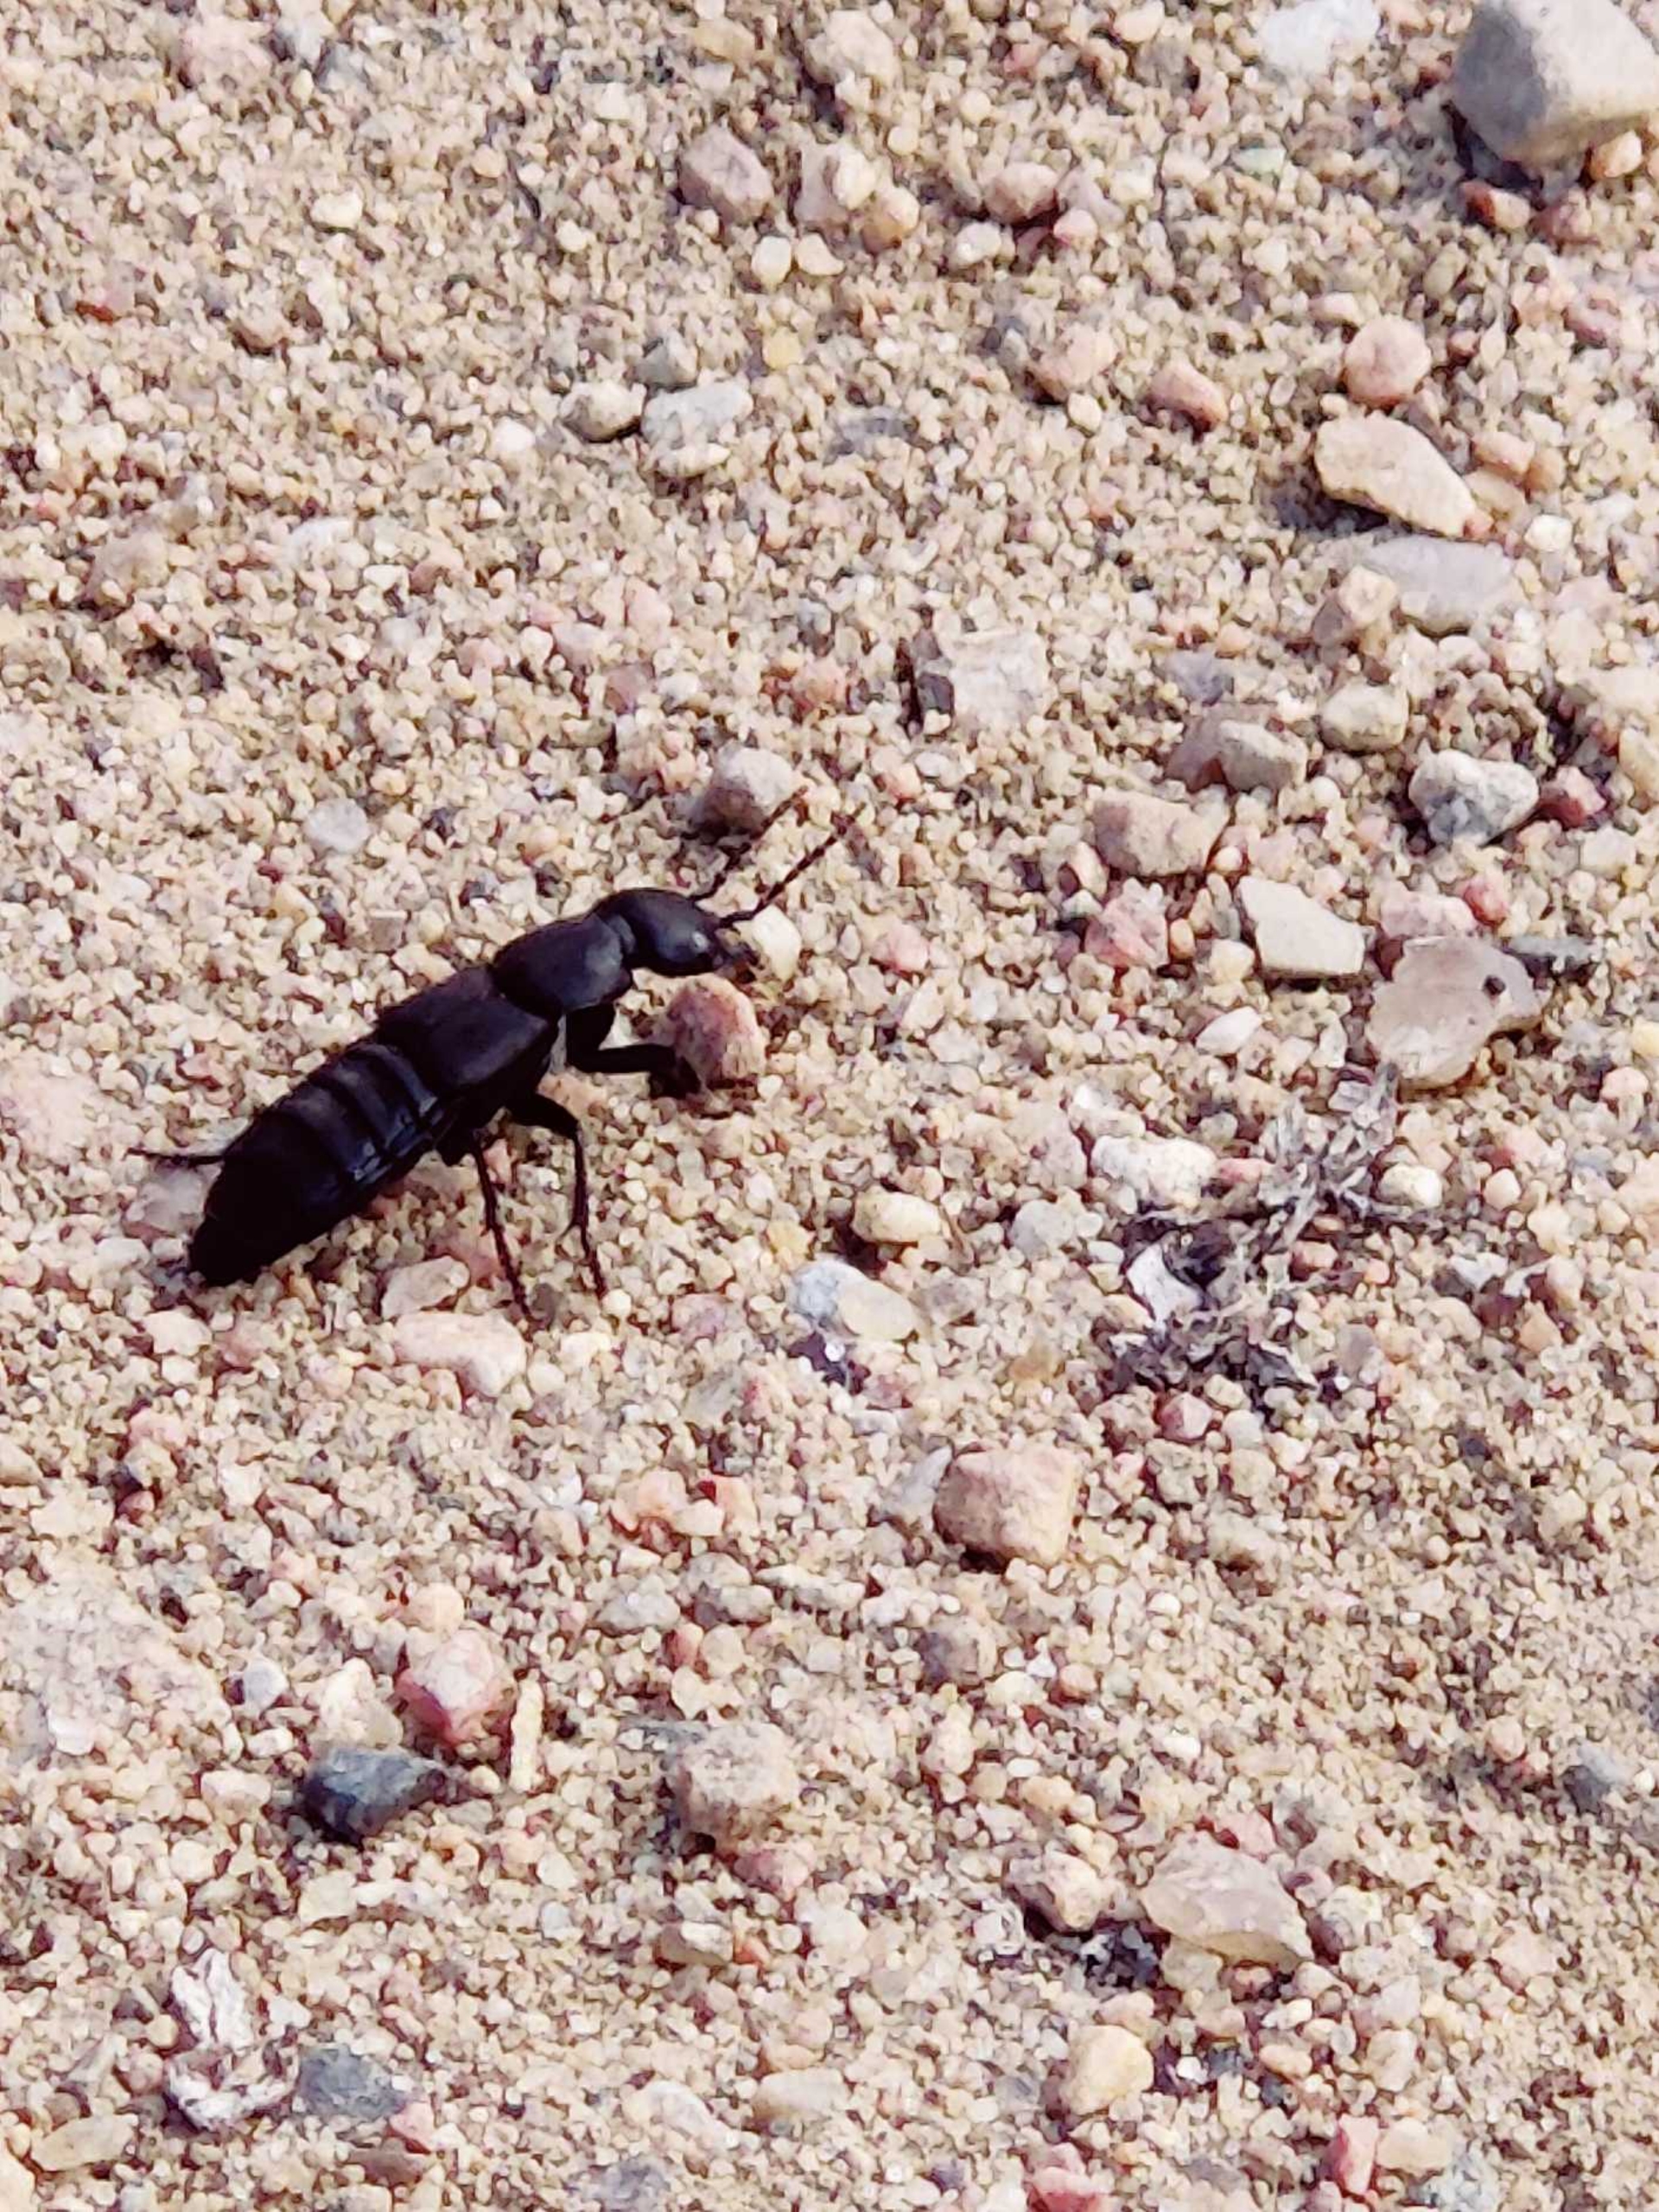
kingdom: Animalia
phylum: Arthropoda
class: Insecta
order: Coleoptera
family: Staphylinidae
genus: Ocypus
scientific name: Ocypus olens
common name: Stor rovbille
